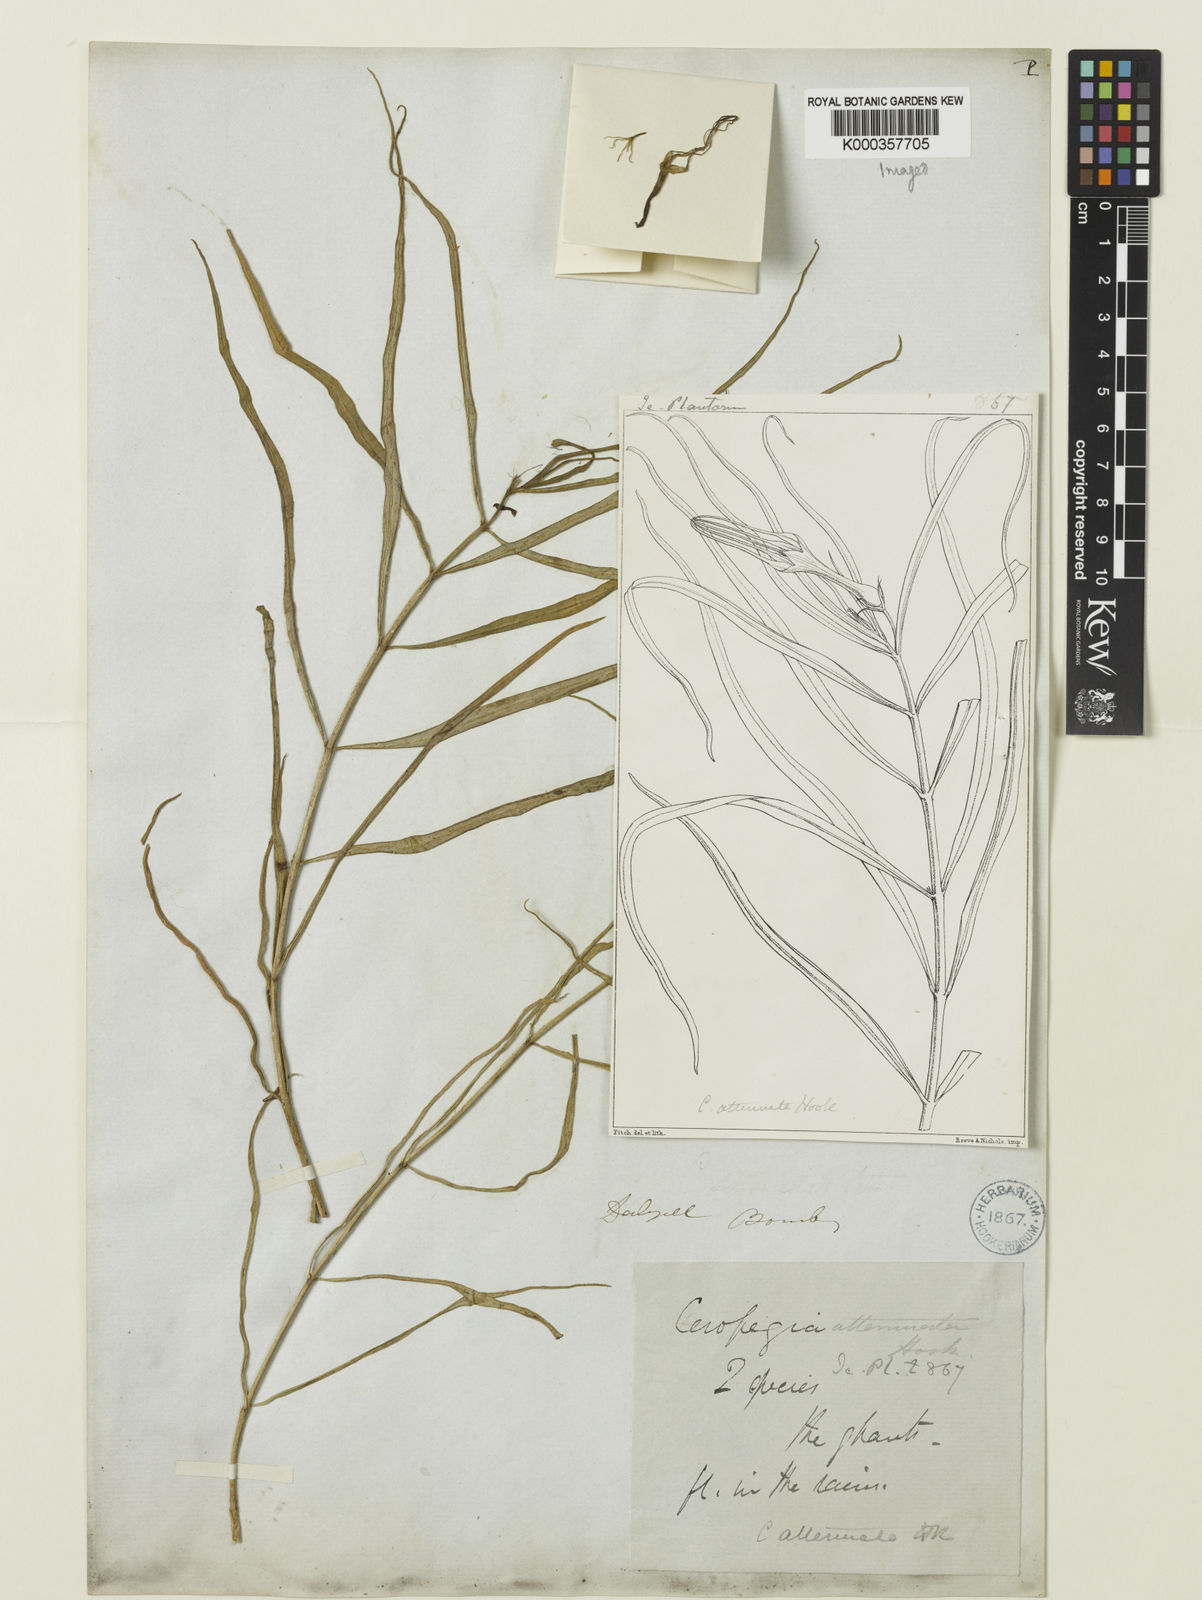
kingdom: Plantae
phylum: Tracheophyta
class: Magnoliopsida
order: Gentianales
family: Apocynaceae
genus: Ceropegia
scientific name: Ceropegia attenuata
